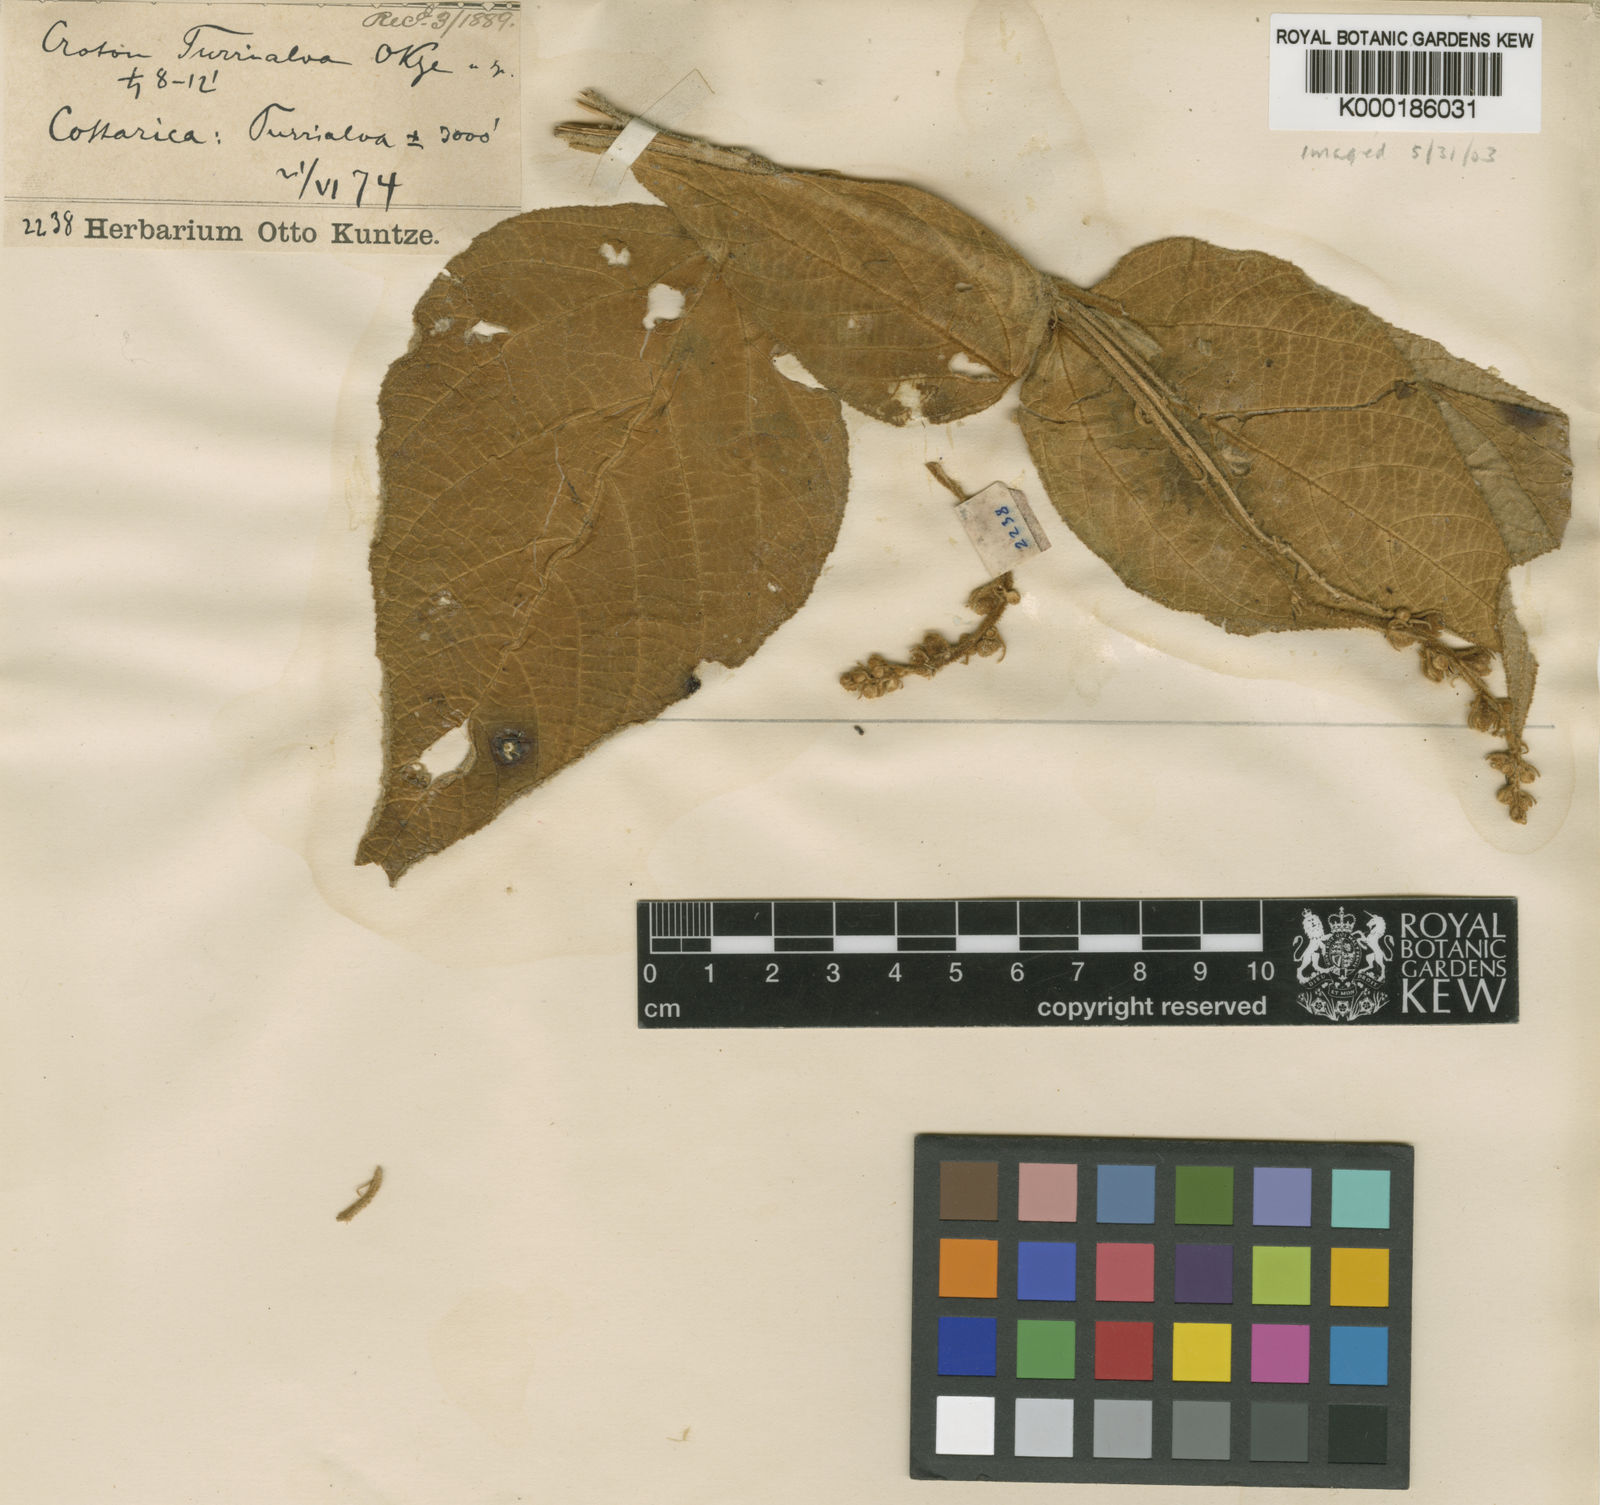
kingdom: Plantae
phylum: Tracheophyta
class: Magnoliopsida
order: Malpighiales
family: Euphorbiaceae
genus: Croton
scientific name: Croton
